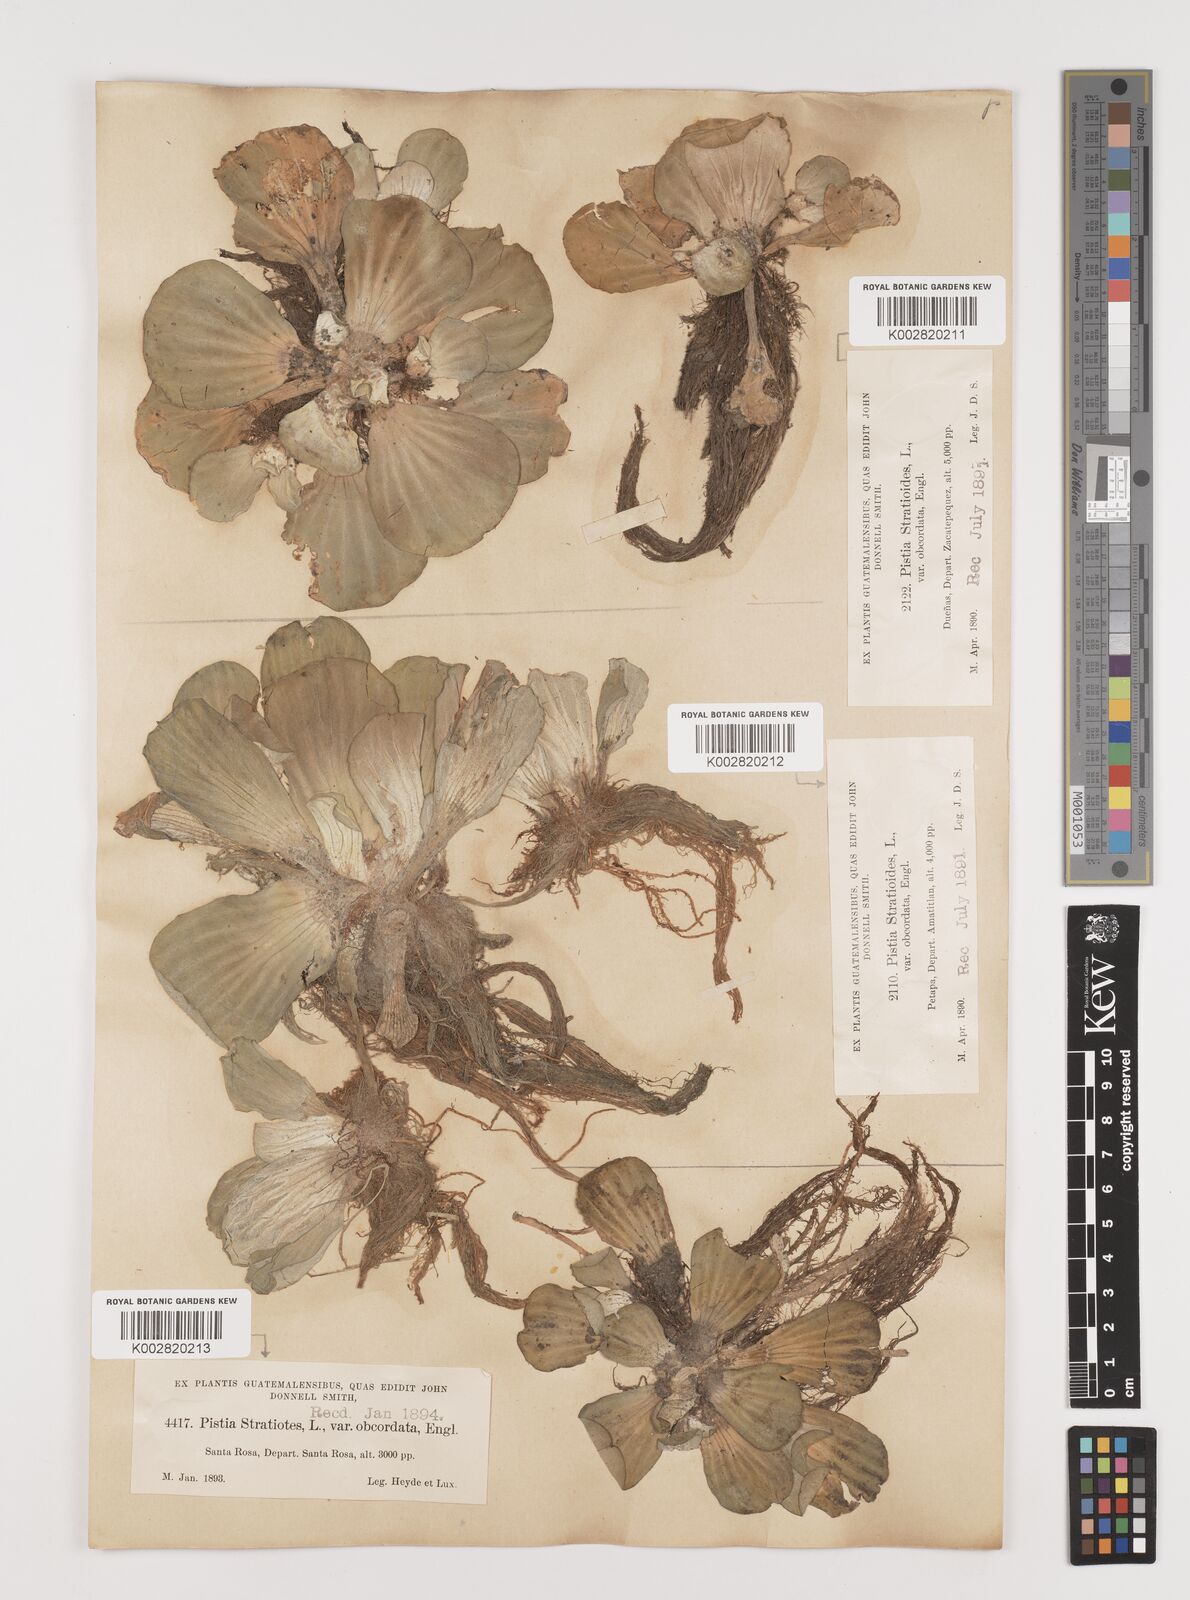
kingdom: Plantae
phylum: Tracheophyta
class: Liliopsida
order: Alismatales
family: Araceae
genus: Pistia
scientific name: Pistia stratiotes
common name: Water lettuce
